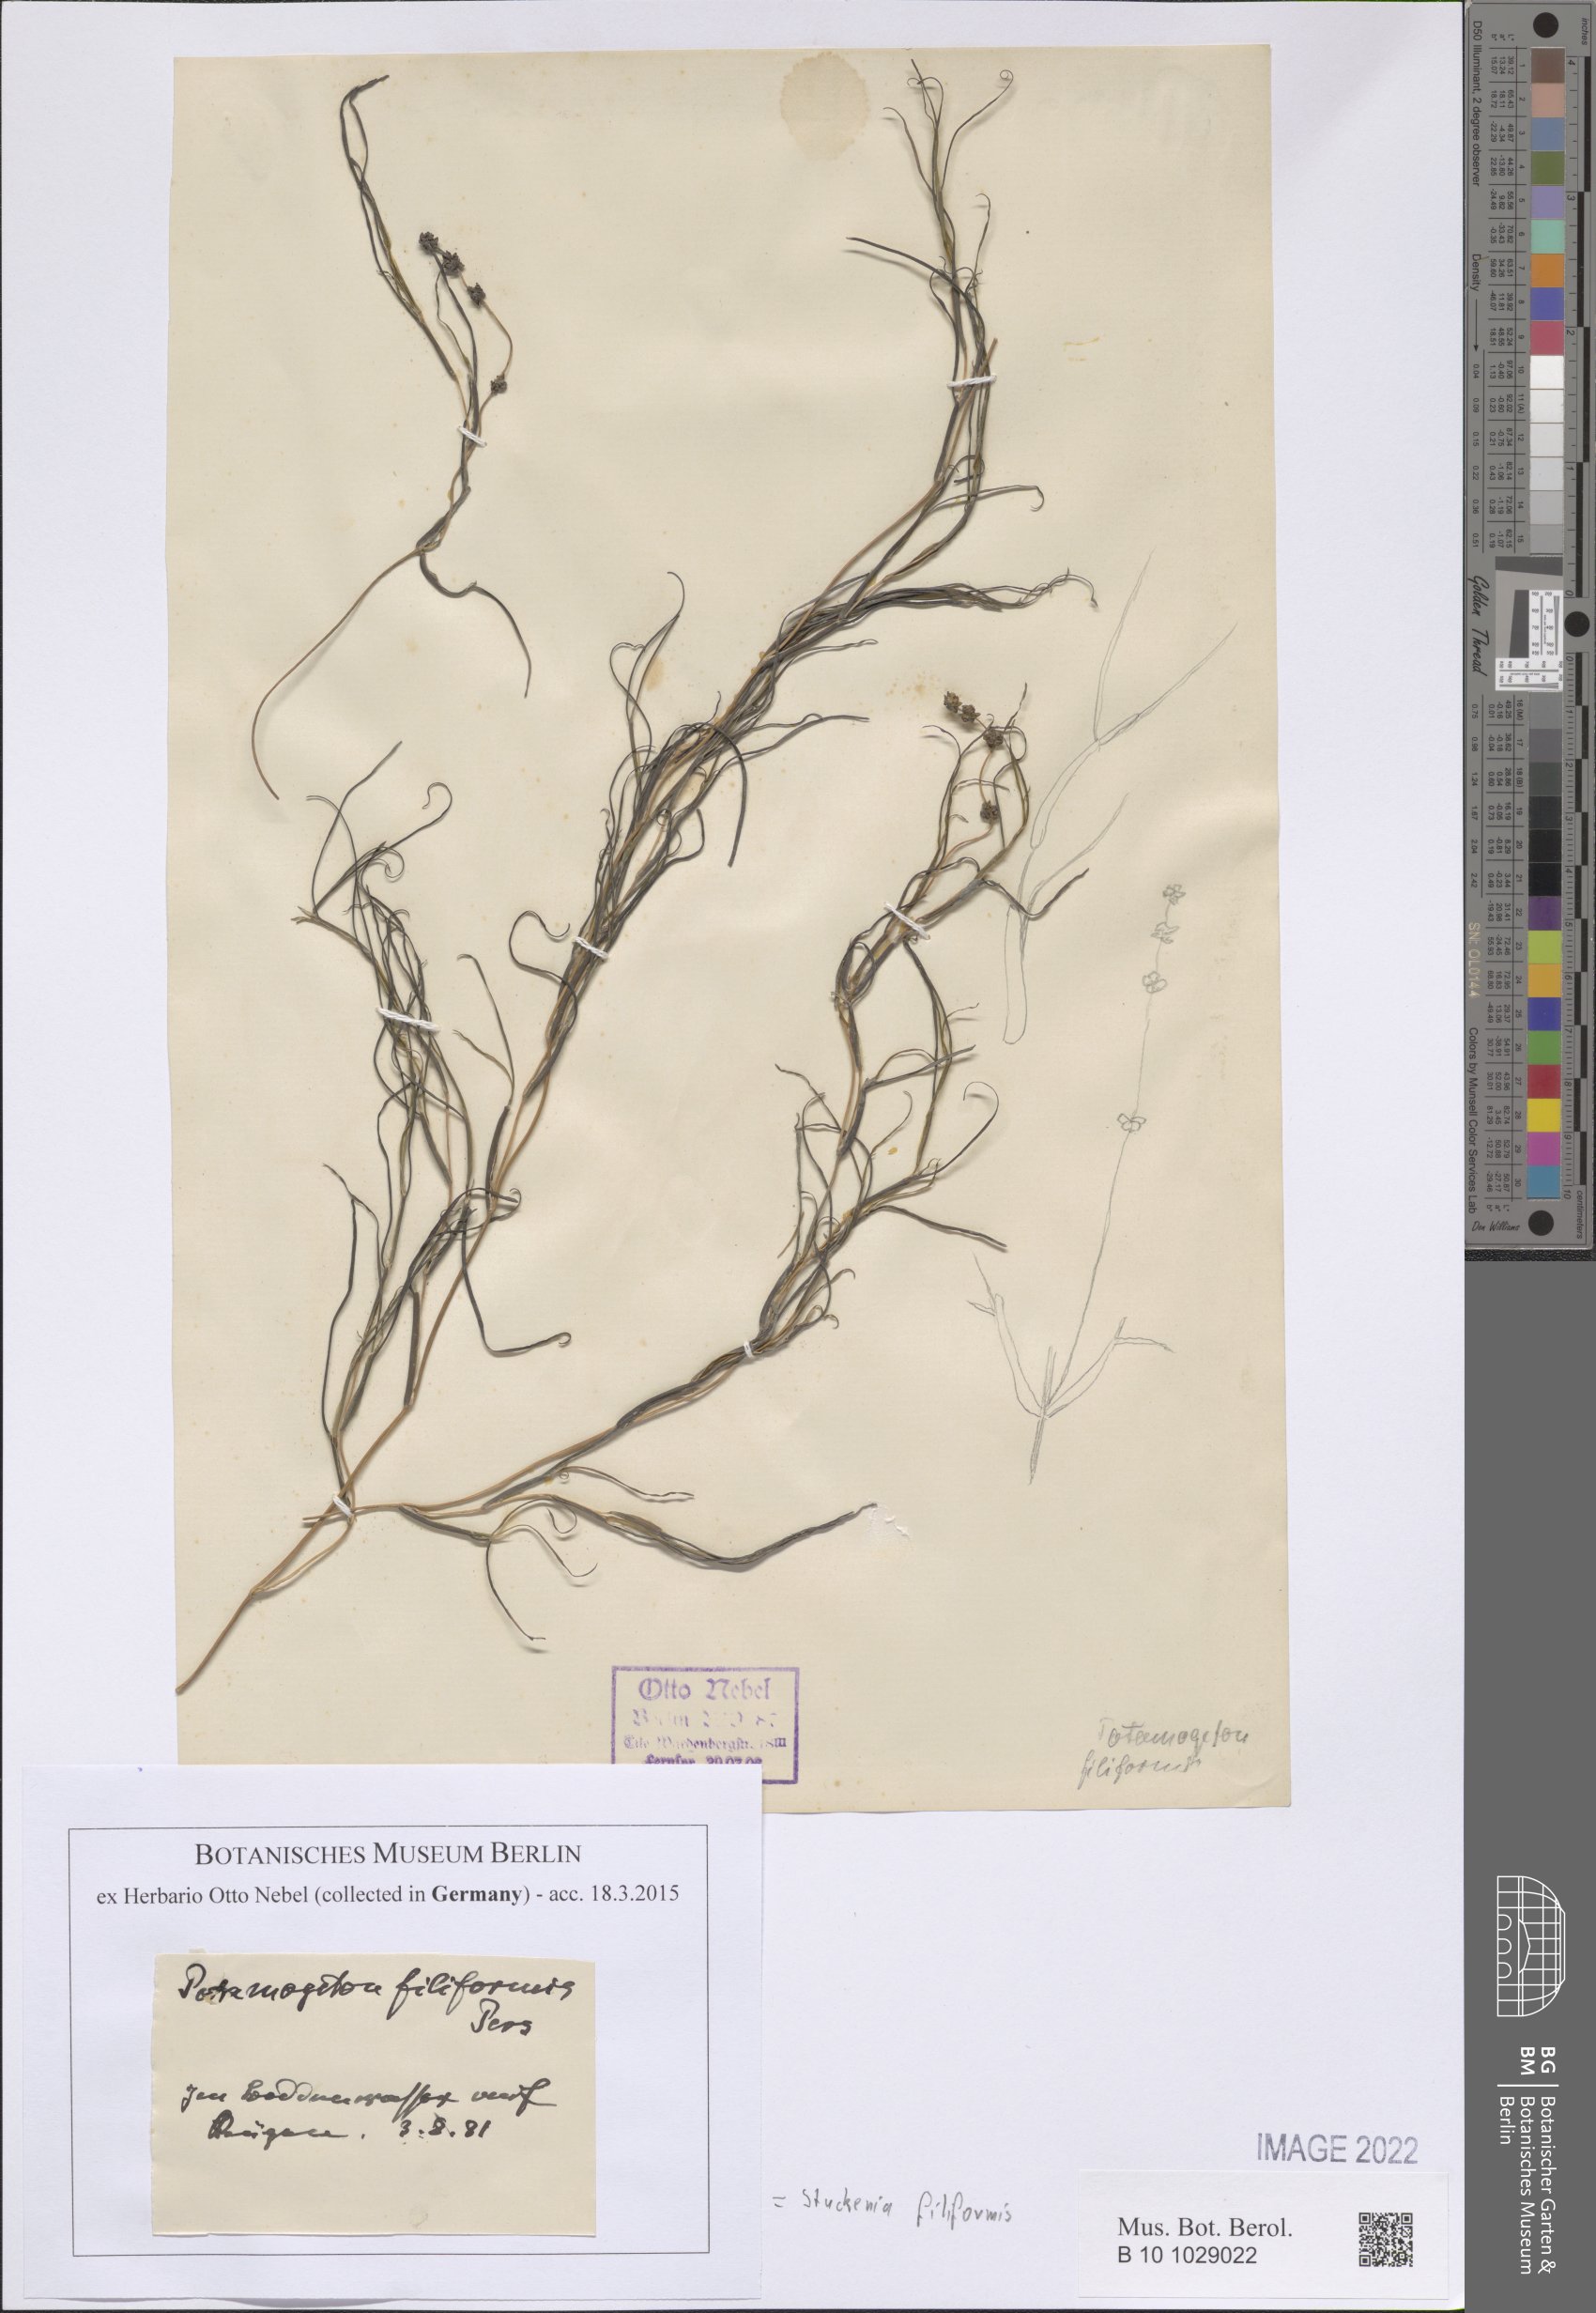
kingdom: Plantae
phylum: Tracheophyta
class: Liliopsida
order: Alismatales
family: Potamogetonaceae
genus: Stuckenia
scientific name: Stuckenia filiformis
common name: Alpine thread-leaved pondweed
